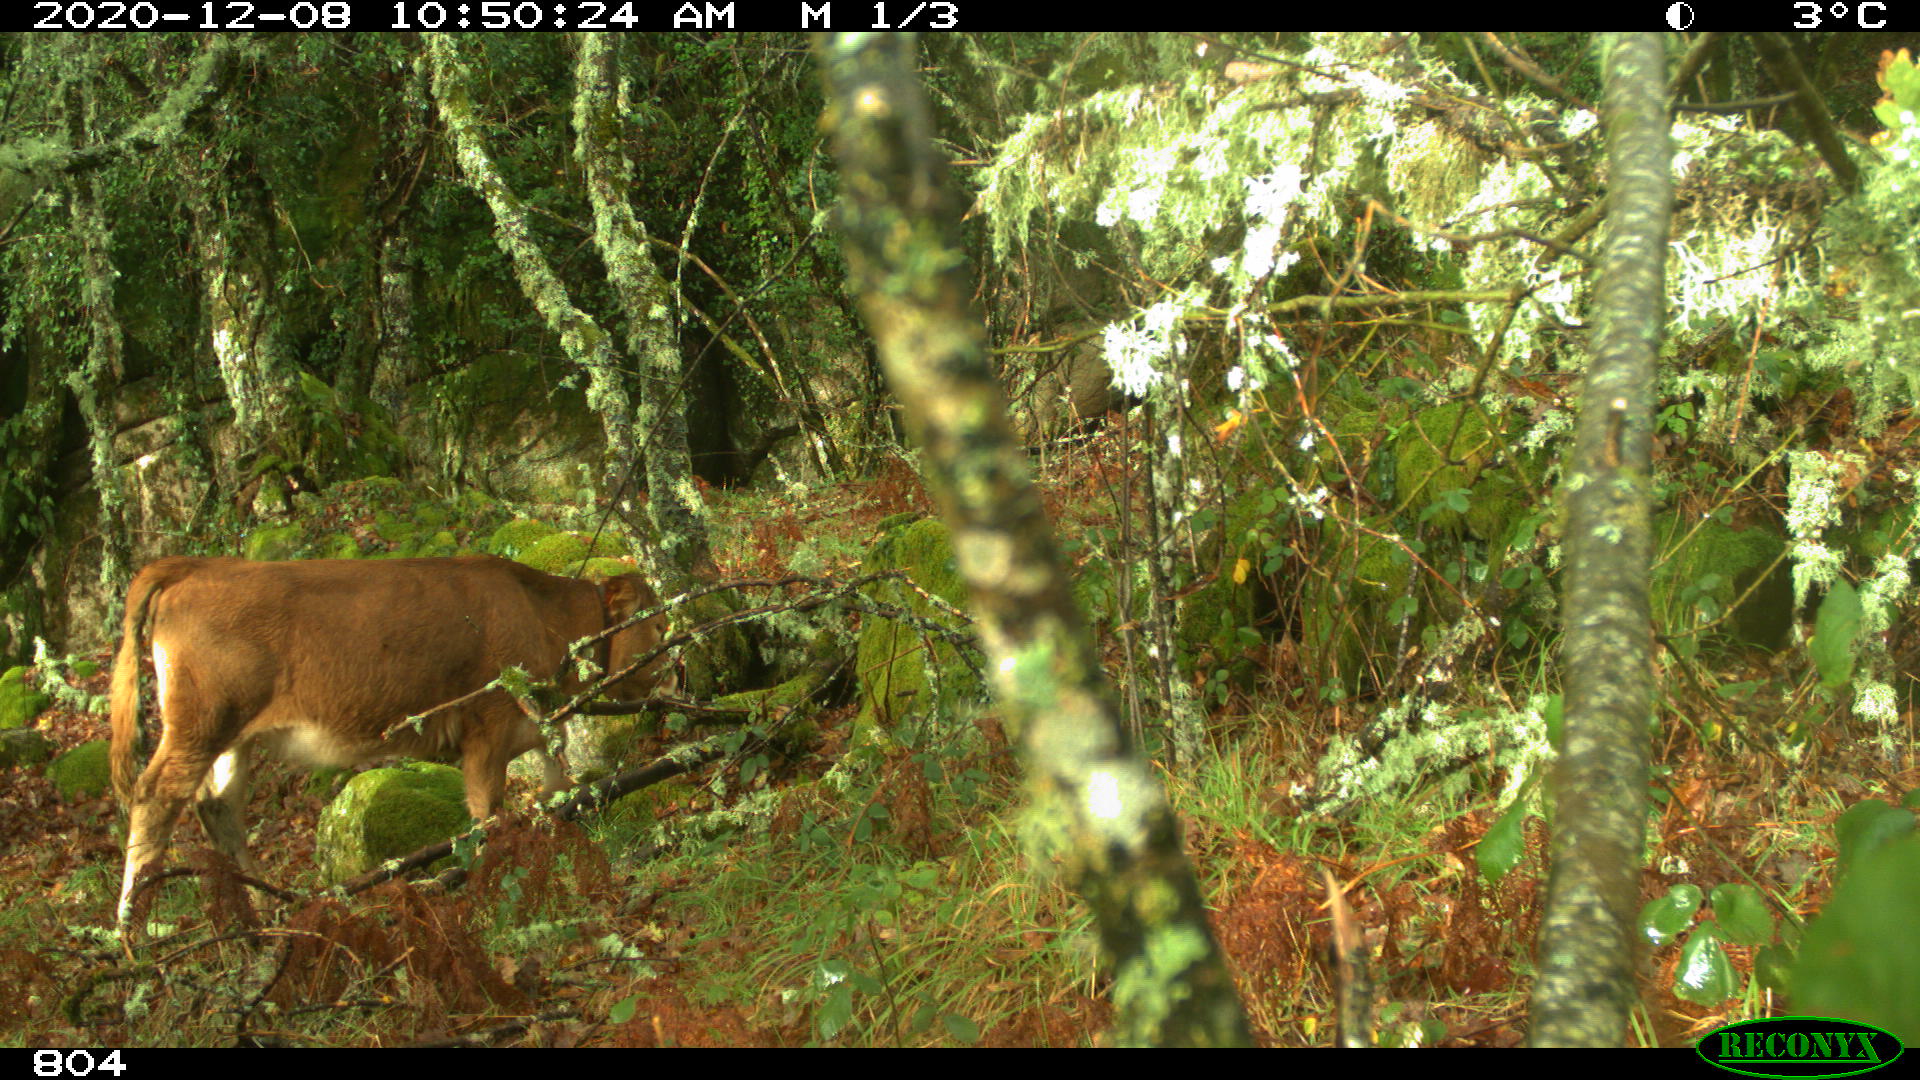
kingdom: Animalia
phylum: Chordata
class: Mammalia
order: Artiodactyla
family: Bovidae
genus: Bos
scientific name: Bos taurus
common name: Domesticated cattle
